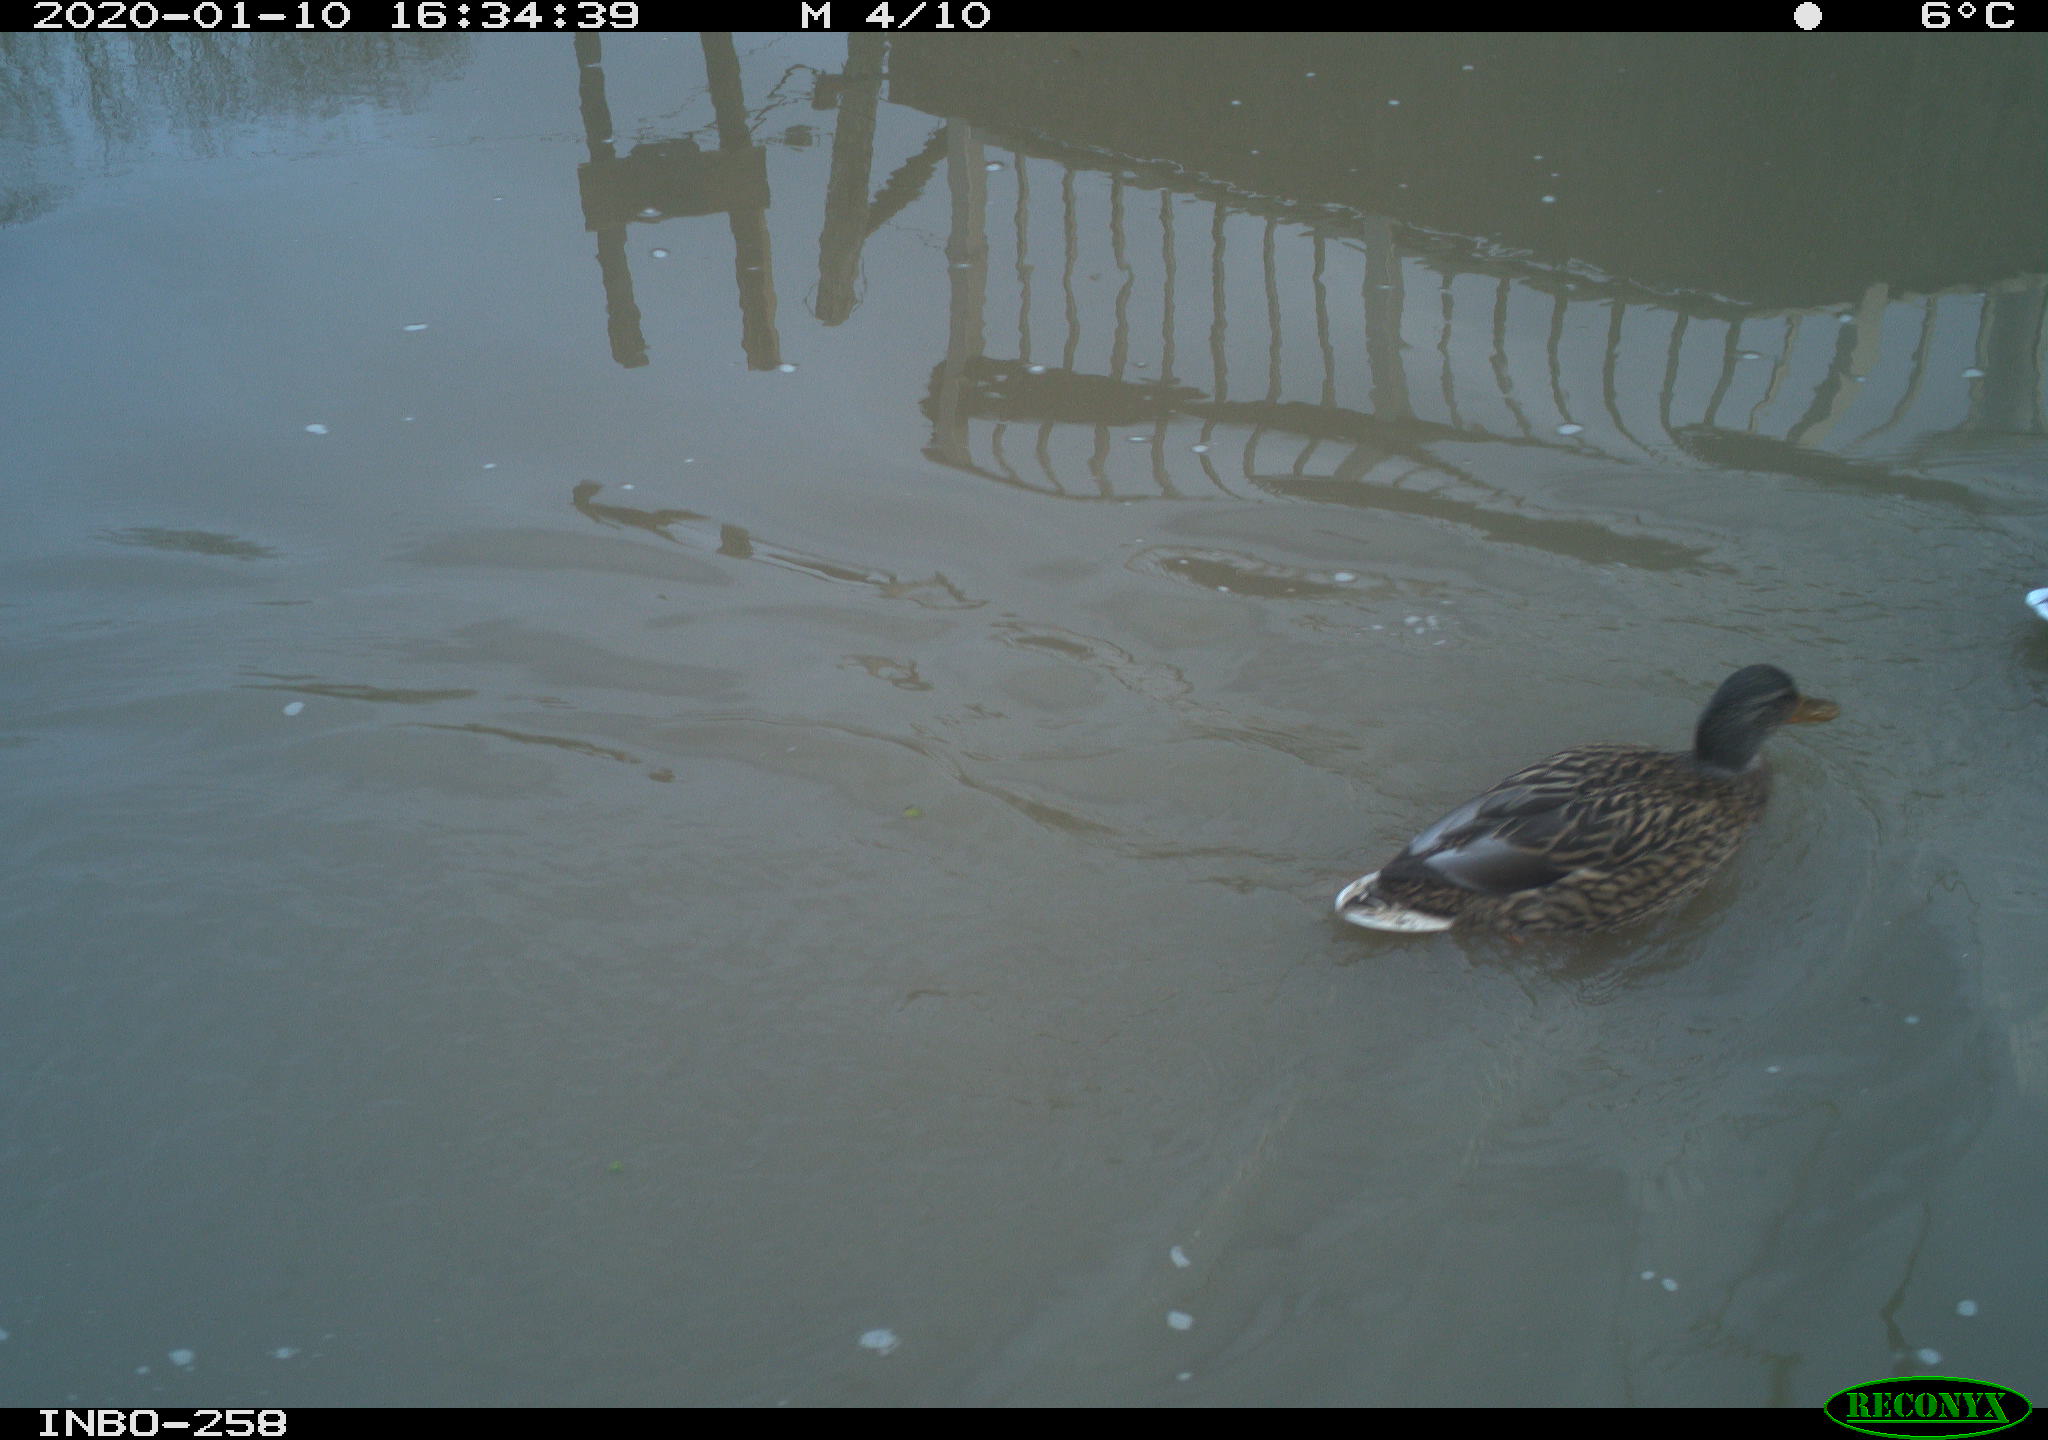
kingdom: Animalia
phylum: Chordata
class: Aves
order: Anseriformes
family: Anatidae
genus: Anas
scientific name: Anas platyrhynchos
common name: Mallard
